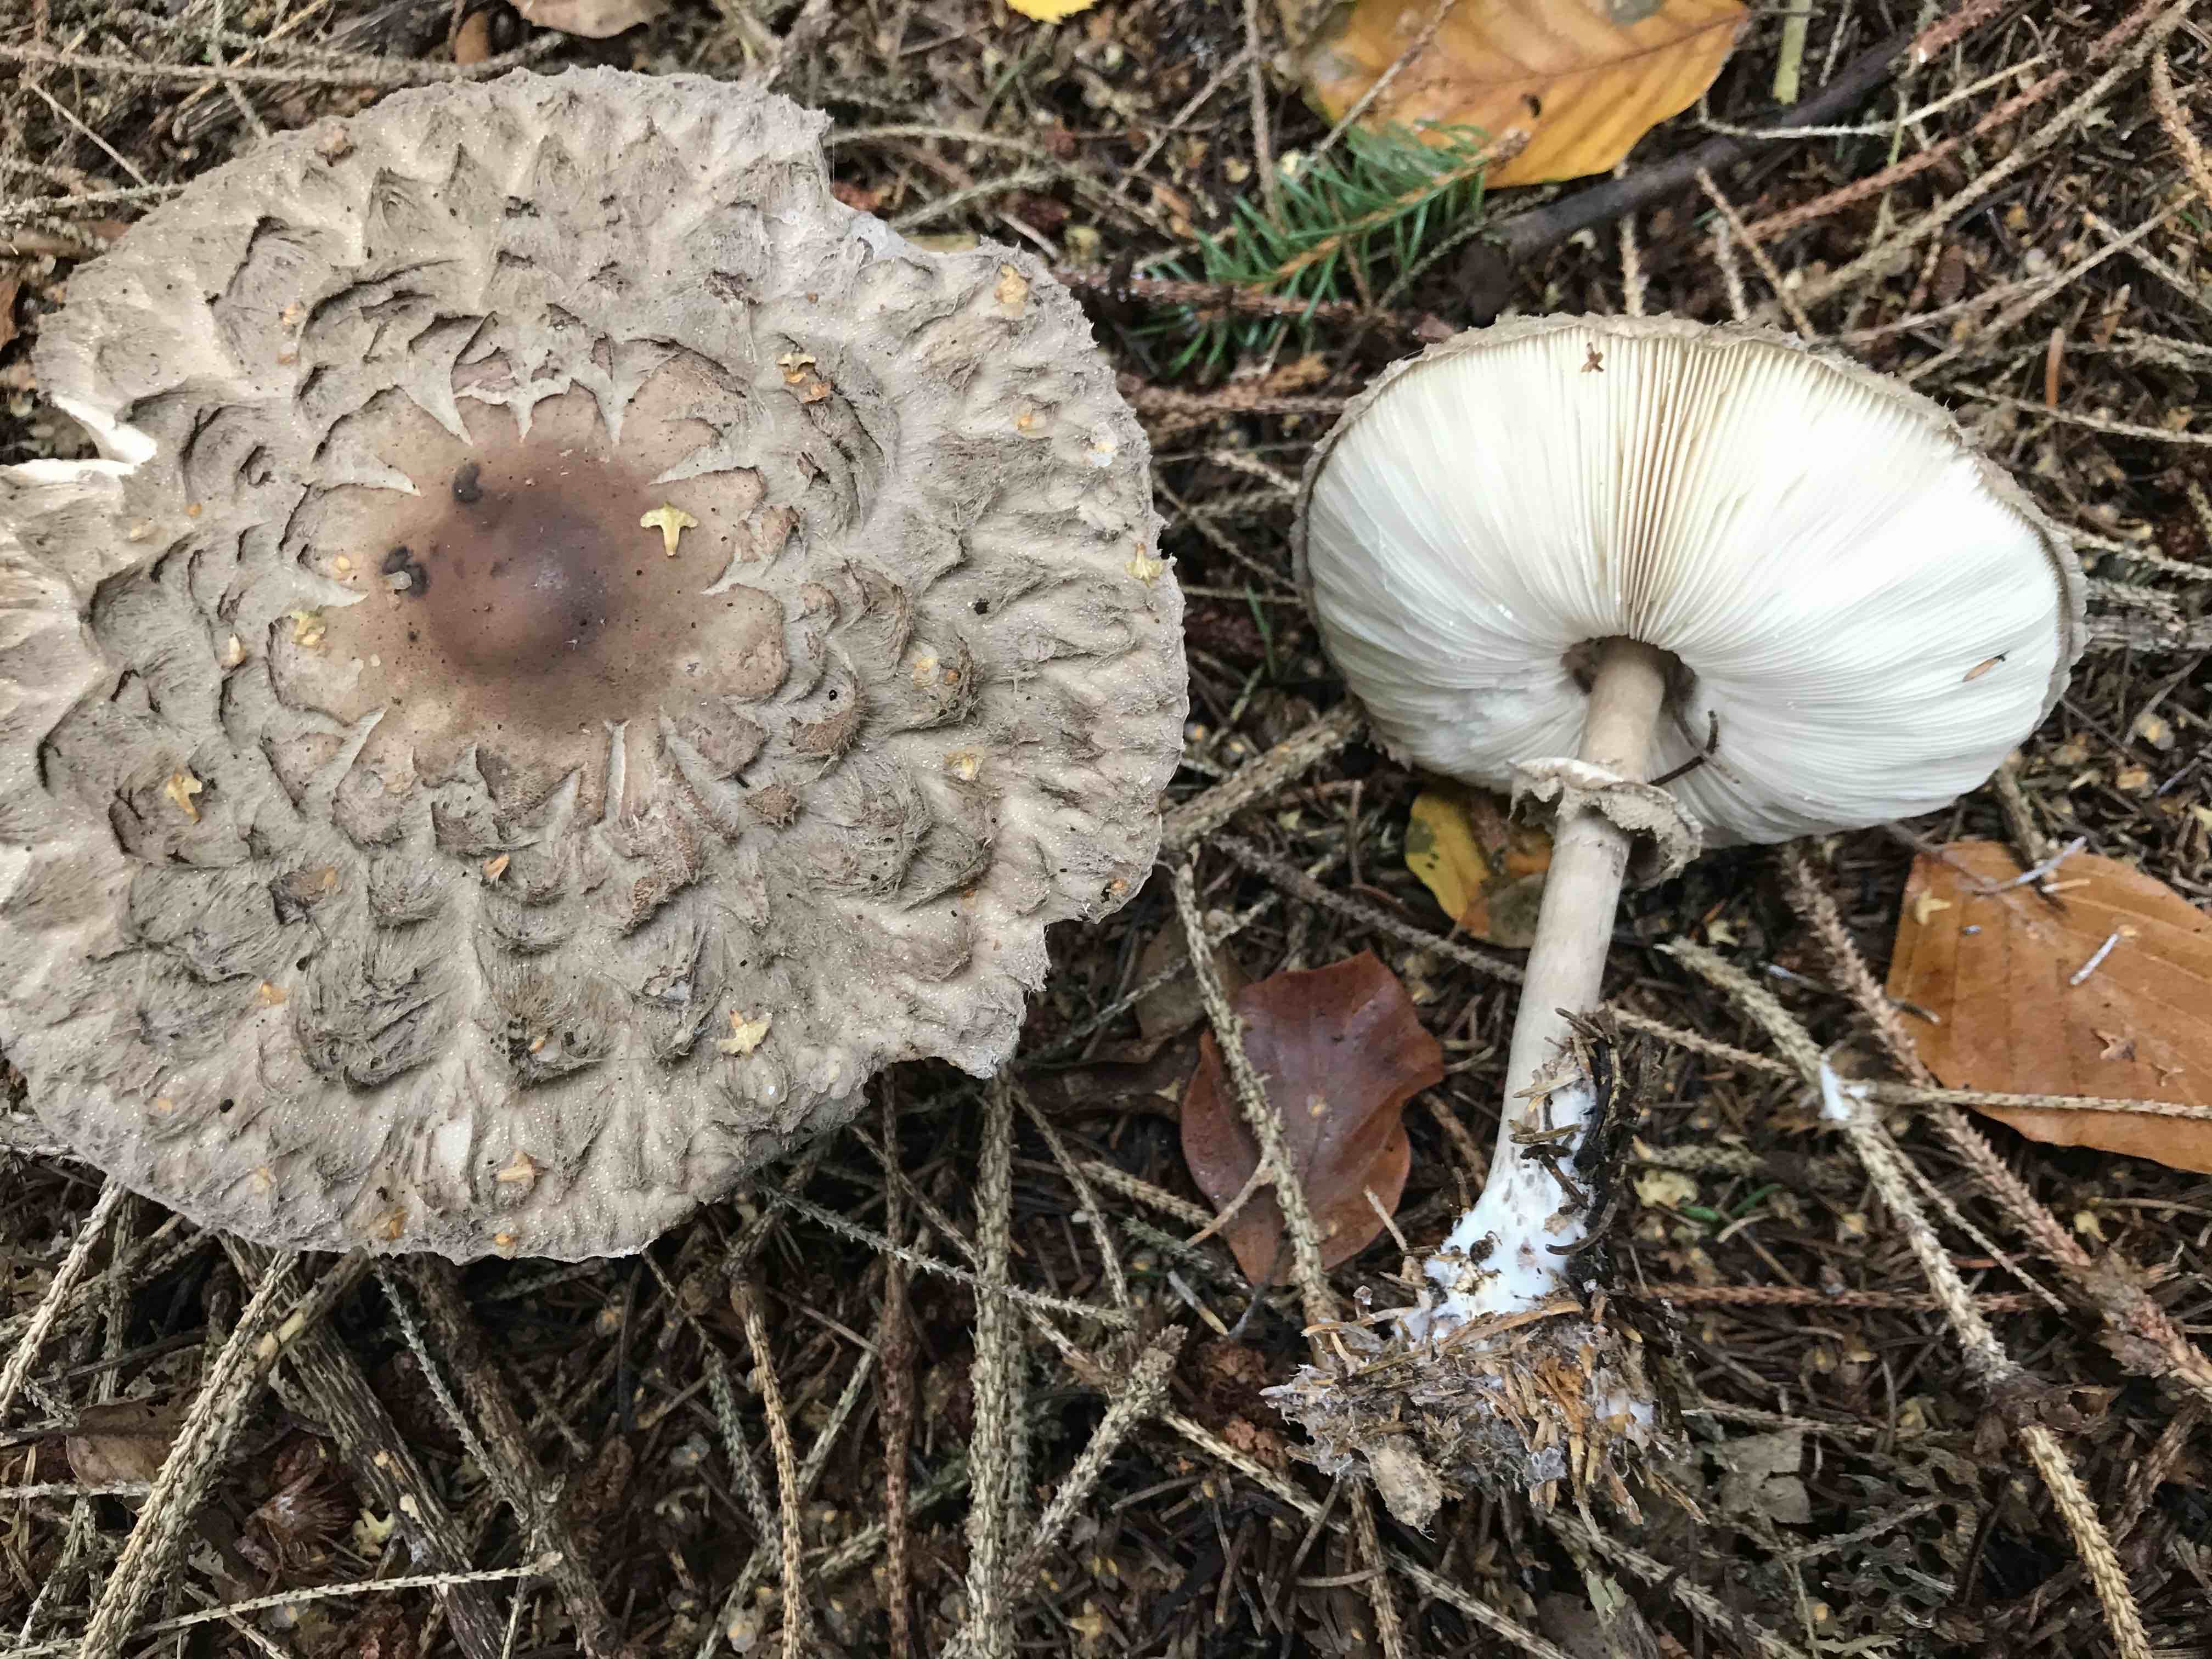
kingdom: Fungi
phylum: Basidiomycota
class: Agaricomycetes
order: Agaricales
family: Agaricaceae
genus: Chlorophyllum
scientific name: Chlorophyllum olivieri
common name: almindelig rabarberhat
